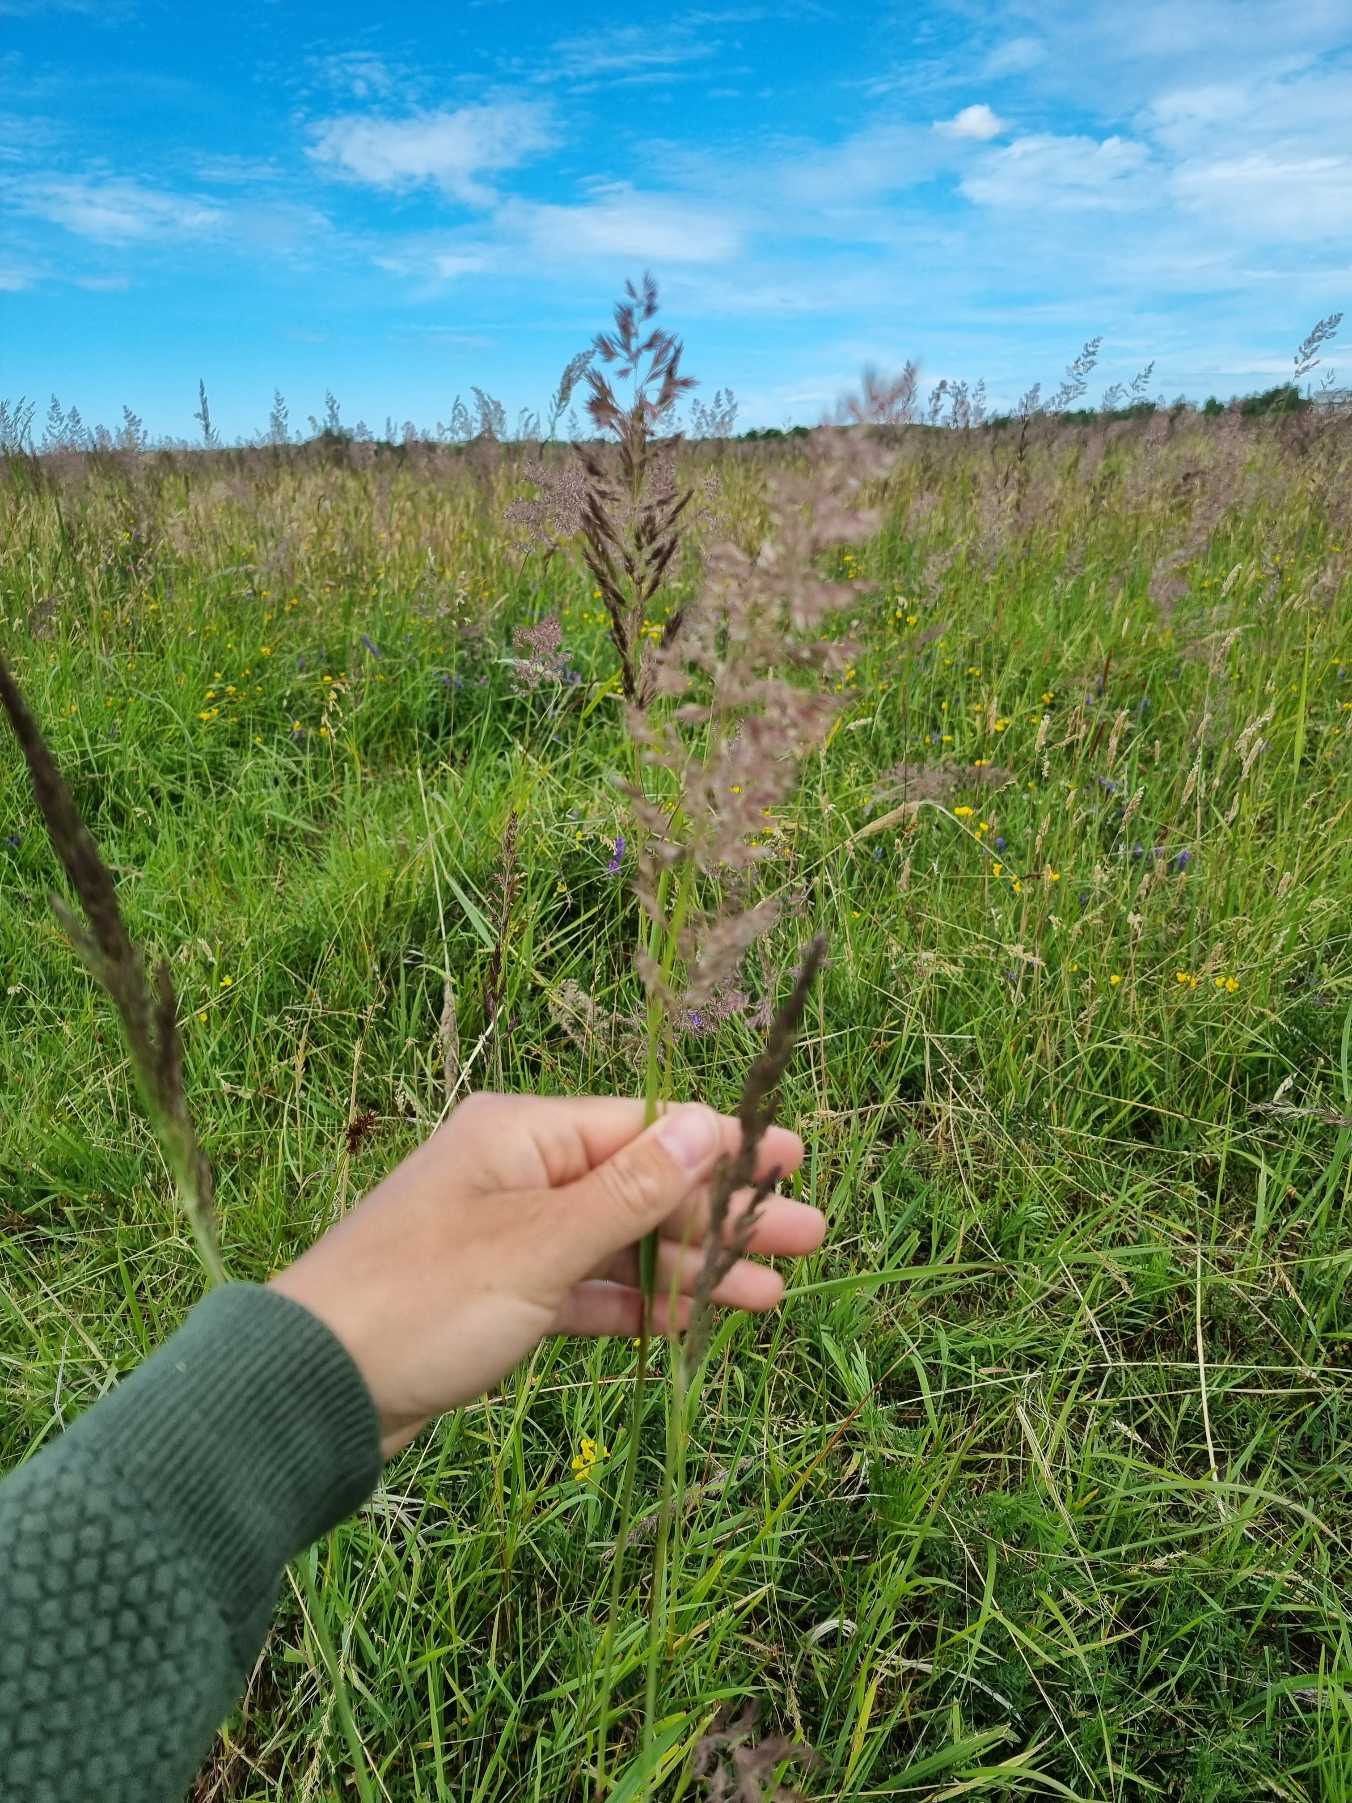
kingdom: Plantae
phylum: Tracheophyta
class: Liliopsida
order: Poales
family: Poaceae
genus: Calamagrostis
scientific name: Calamagrostis epigejos
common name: Bjerg-rørhvene
